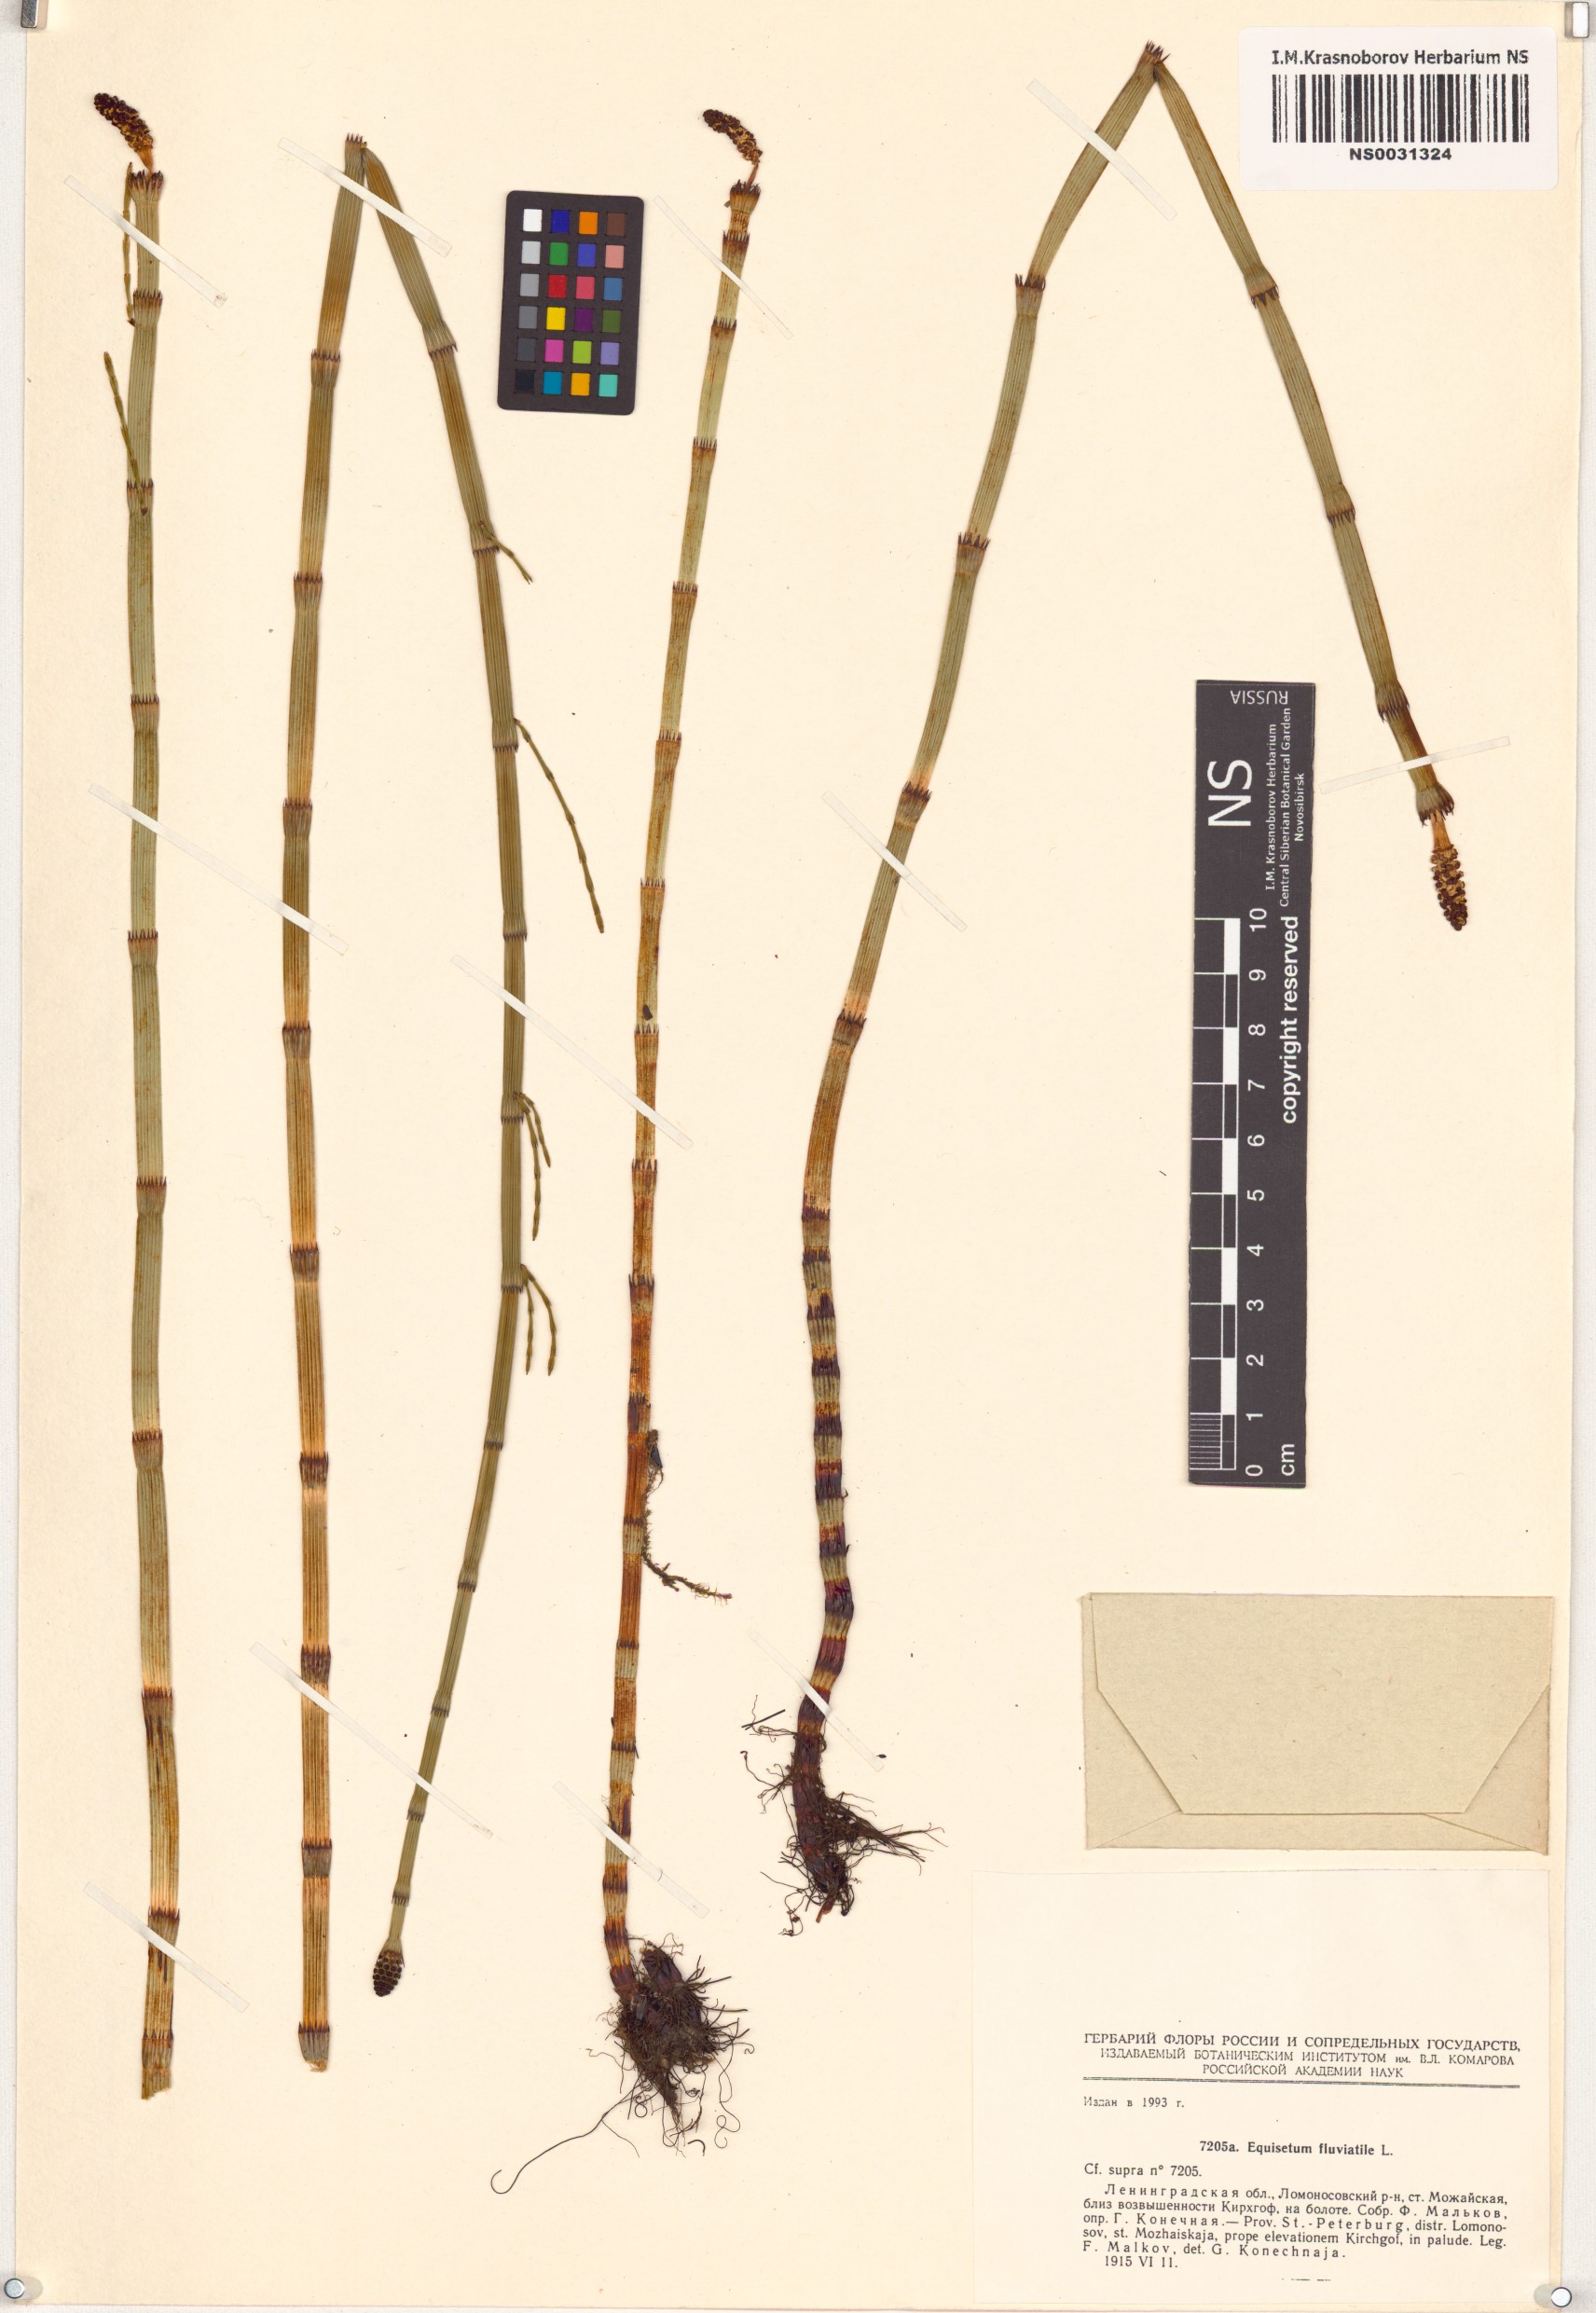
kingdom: Plantae
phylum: Tracheophyta
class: Polypodiopsida
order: Equisetales
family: Equisetaceae
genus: Equisetum
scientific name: Equisetum fluviatile
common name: Water horsetail
